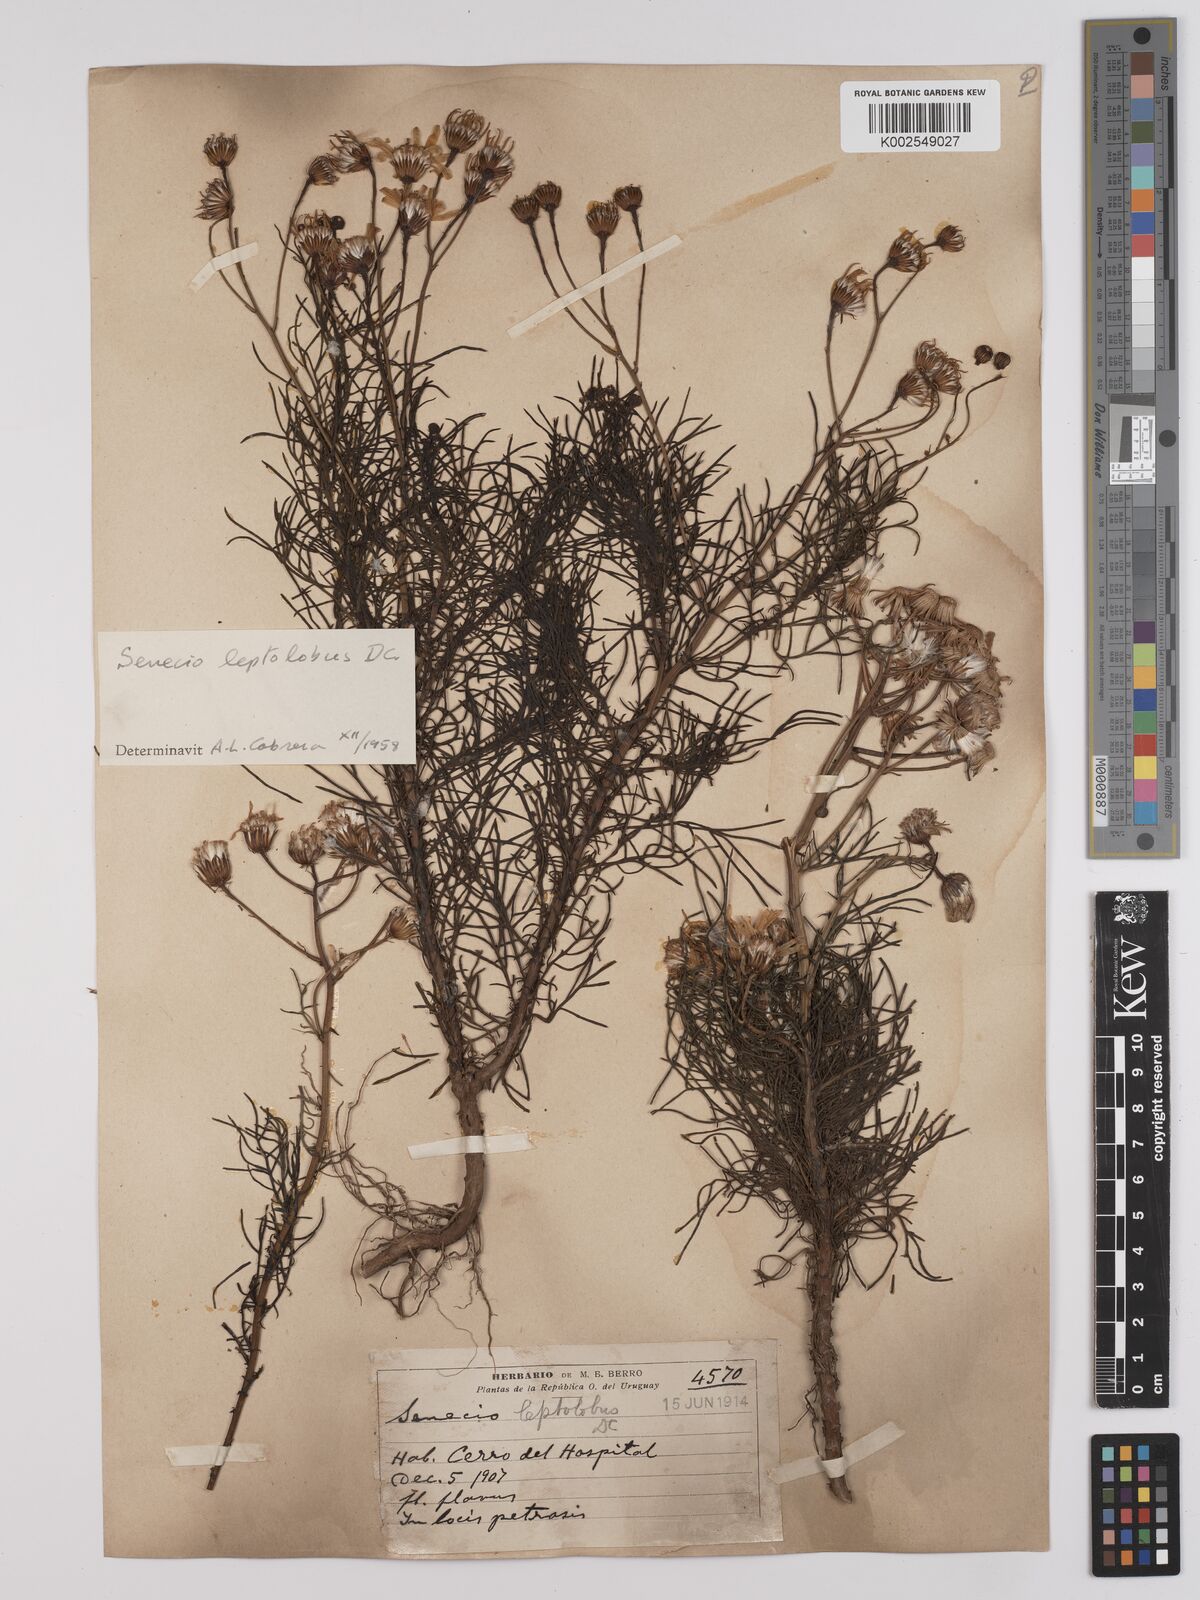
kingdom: Plantae
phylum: Tracheophyta
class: Magnoliopsida
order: Asterales
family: Asteraceae
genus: Senecio
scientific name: Senecio leptolobus
